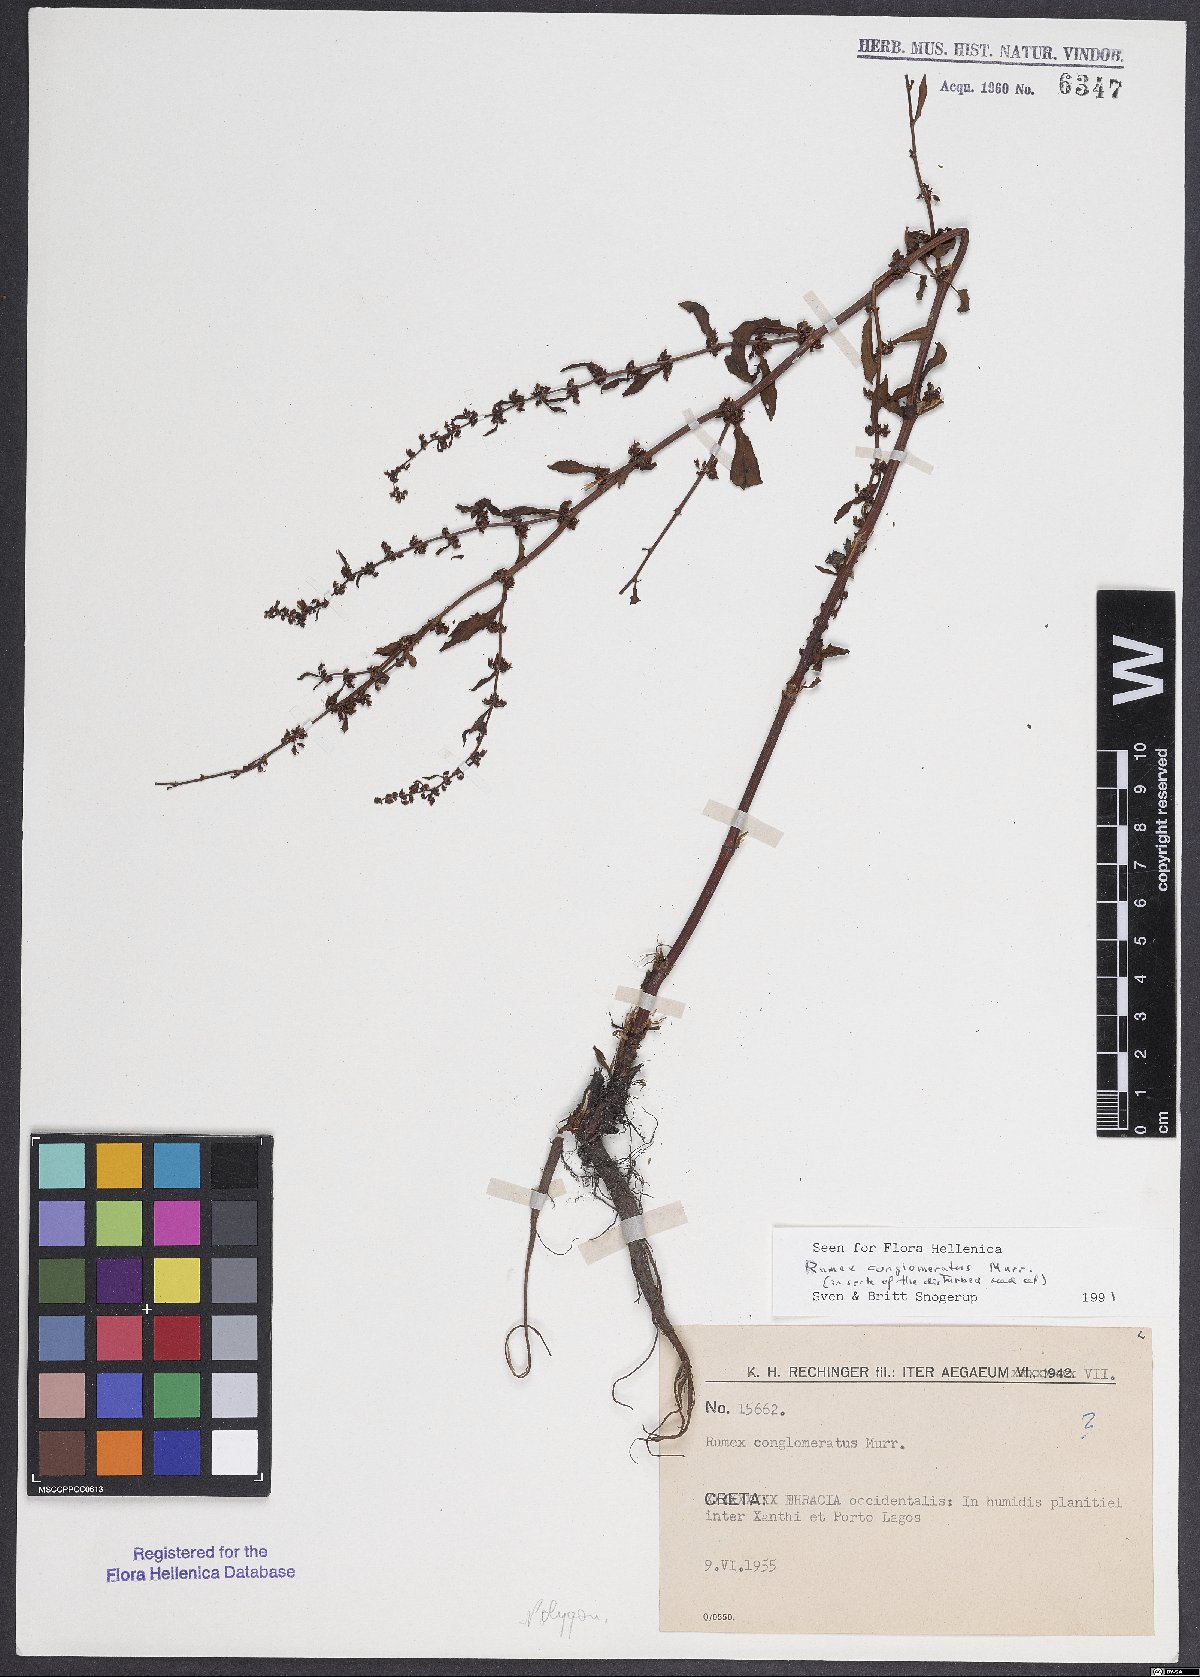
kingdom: Plantae
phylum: Tracheophyta
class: Magnoliopsida
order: Caryophyllales
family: Polygonaceae
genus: Rumex
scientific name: Rumex conglomeratus
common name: Clustered dock
